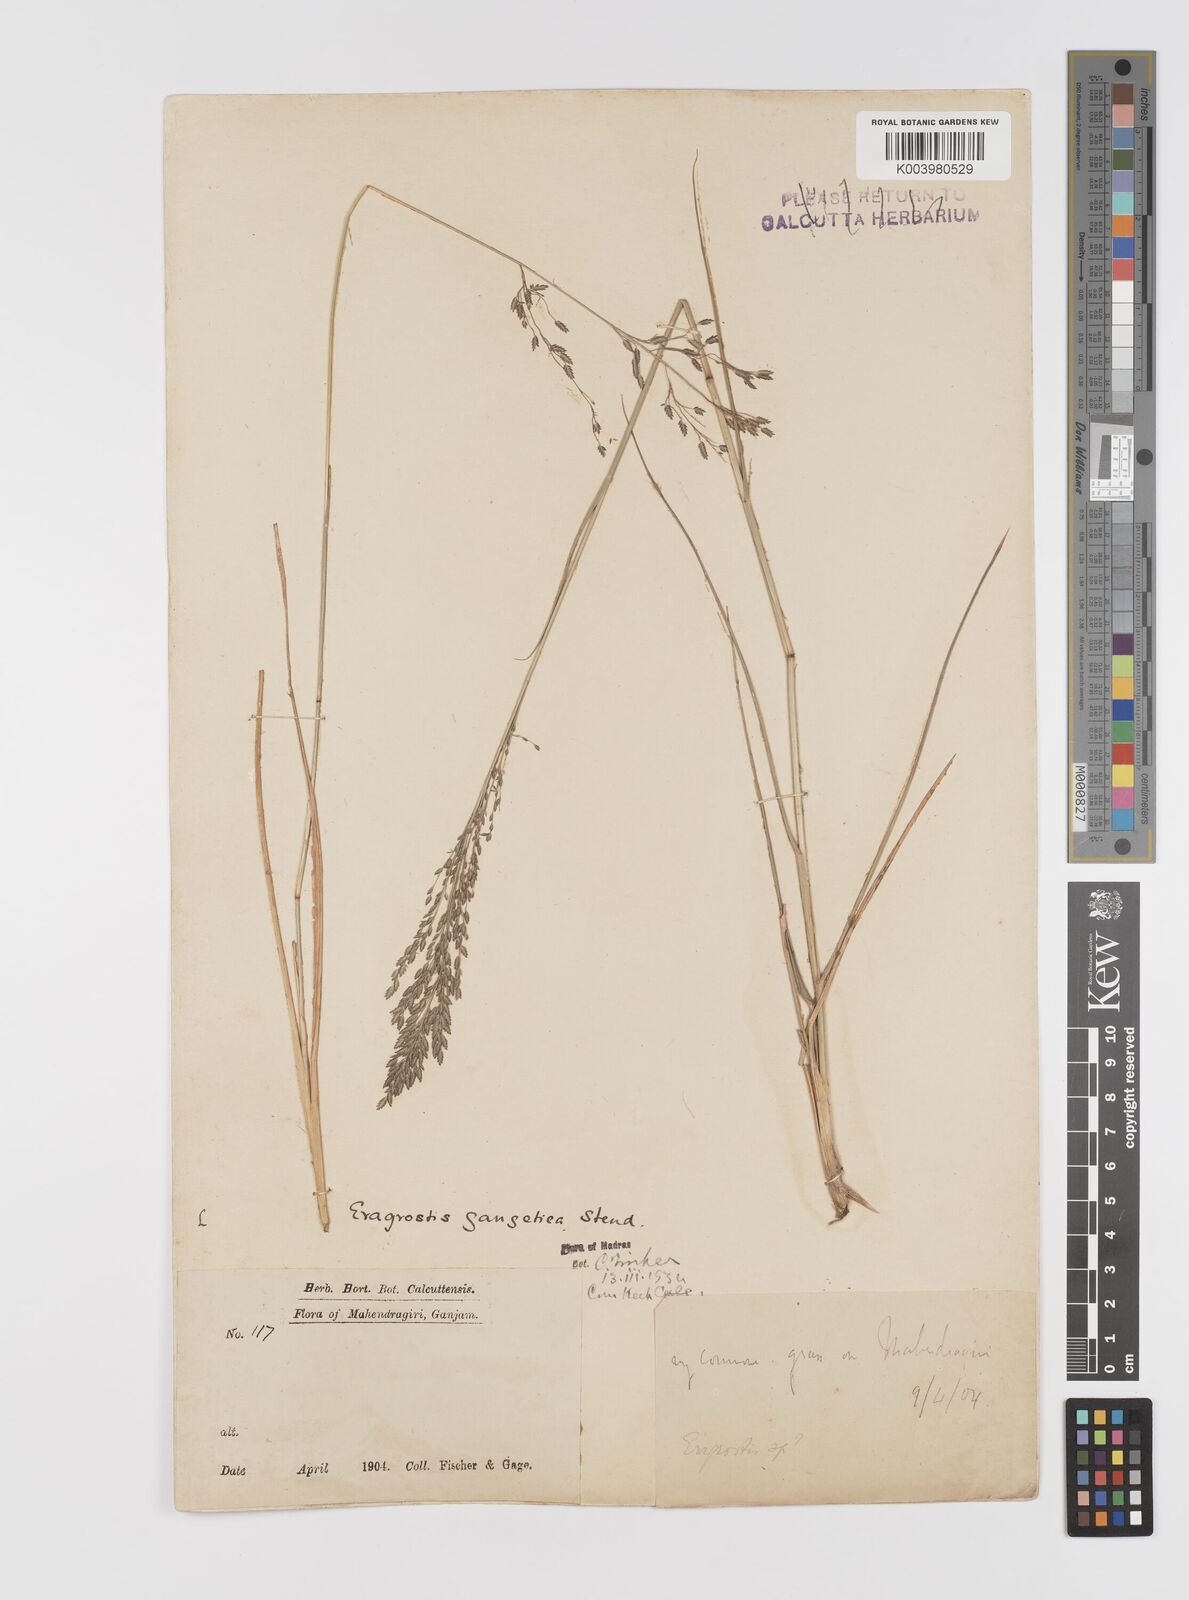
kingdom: Plantae
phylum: Tracheophyta
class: Liliopsida
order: Poales
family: Poaceae
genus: Eragrostis
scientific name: Eragrostis
